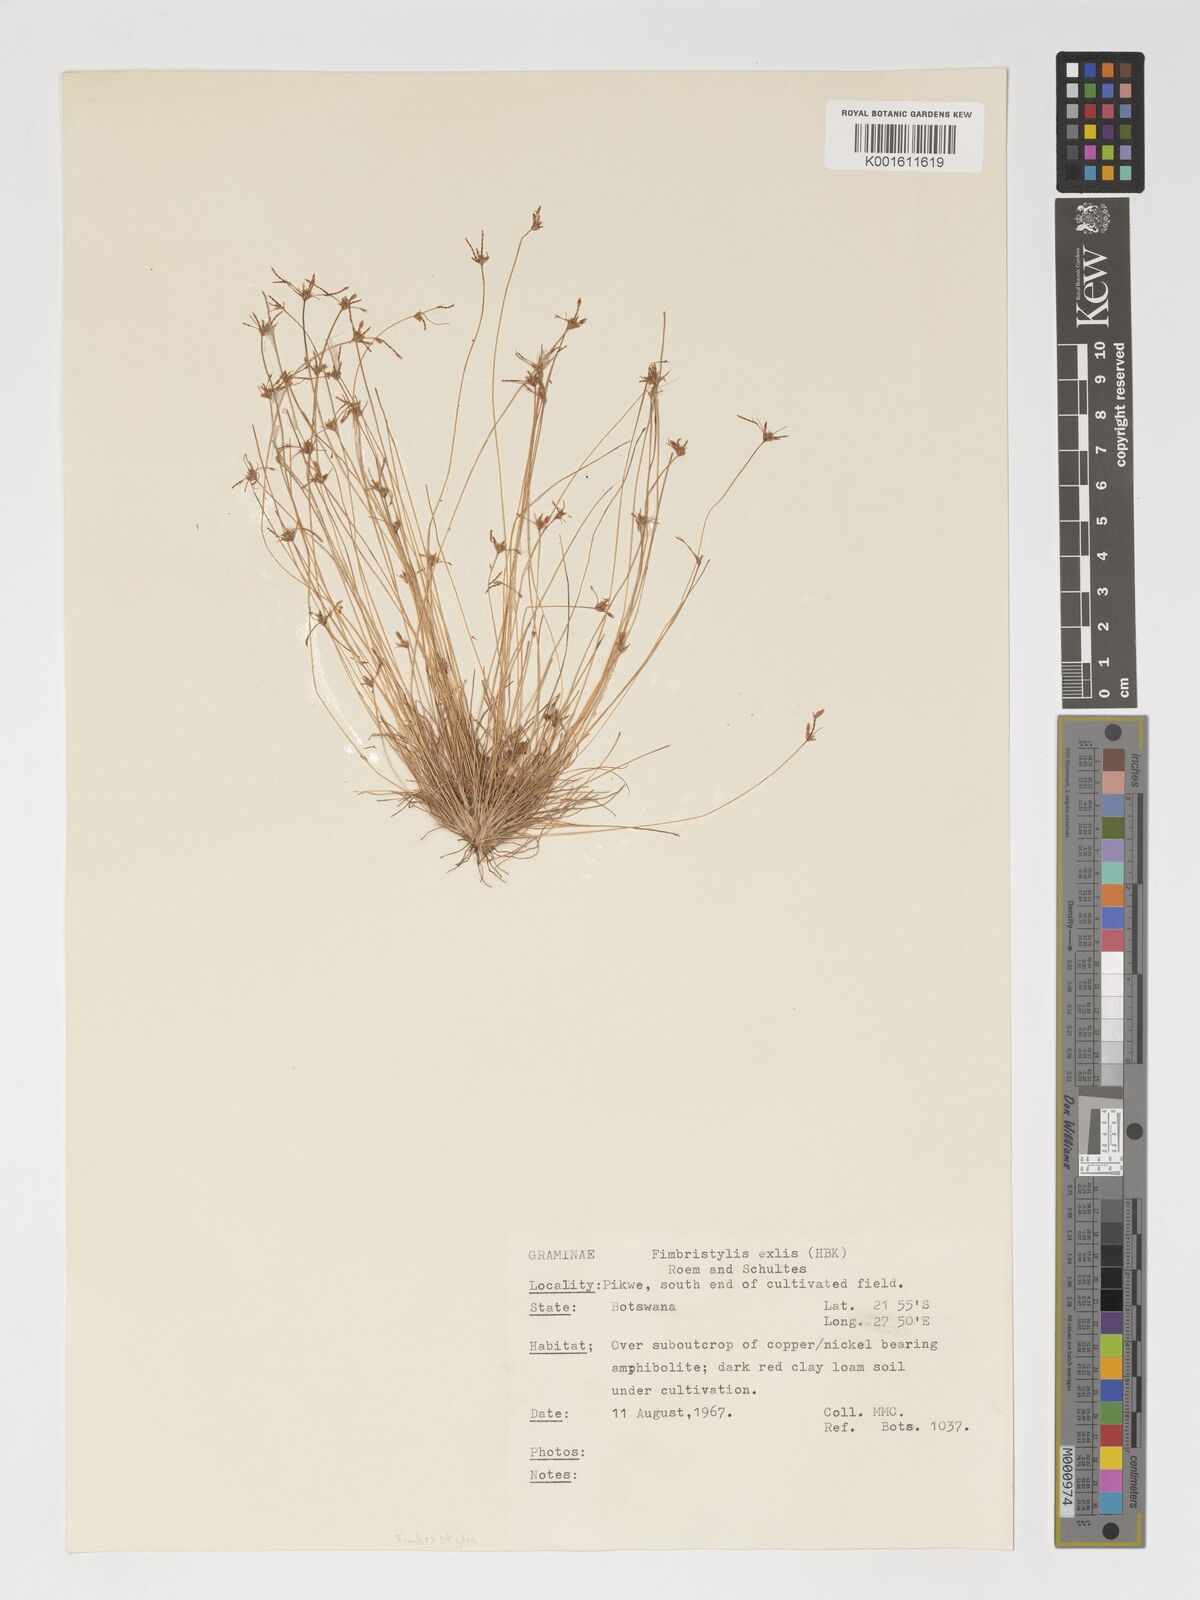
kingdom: Plantae
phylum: Tracheophyta
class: Liliopsida
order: Poales
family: Cyperaceae
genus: Bulbostylis
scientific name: Bulbostylis hispidula
